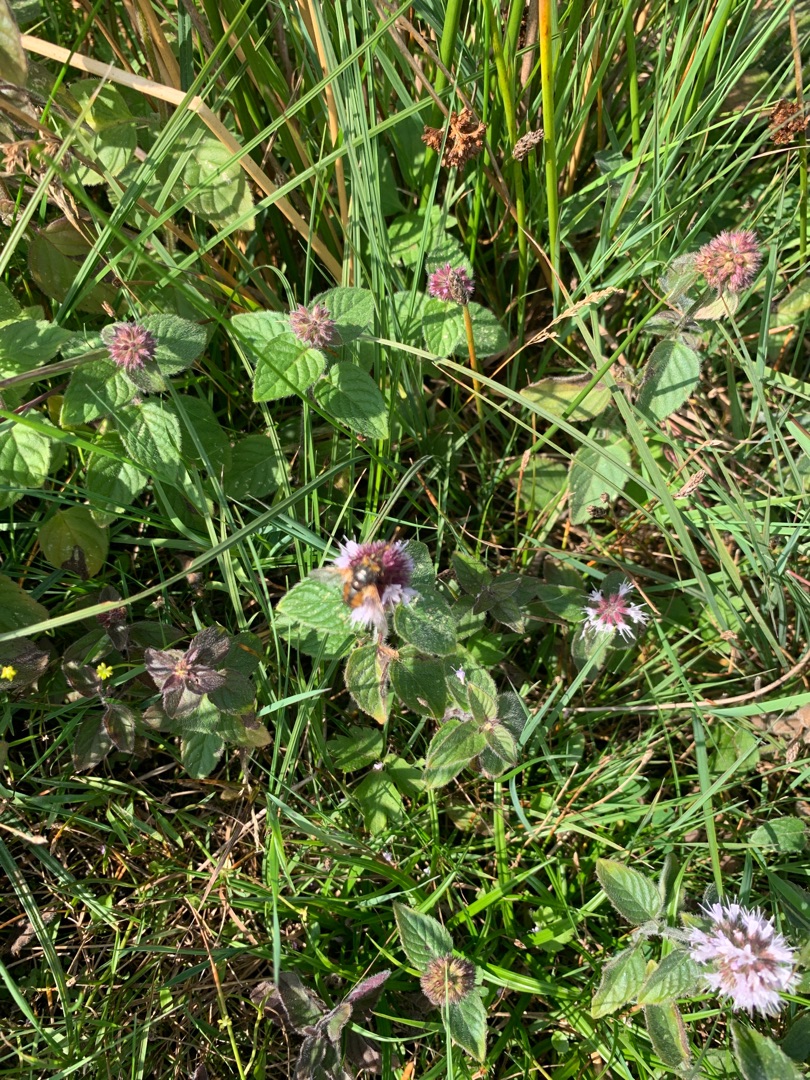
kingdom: Animalia
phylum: Arthropoda
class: Insecta
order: Diptera
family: Tachinidae
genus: Tachina
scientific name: Tachina fera
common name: Mellemfluen oskar
